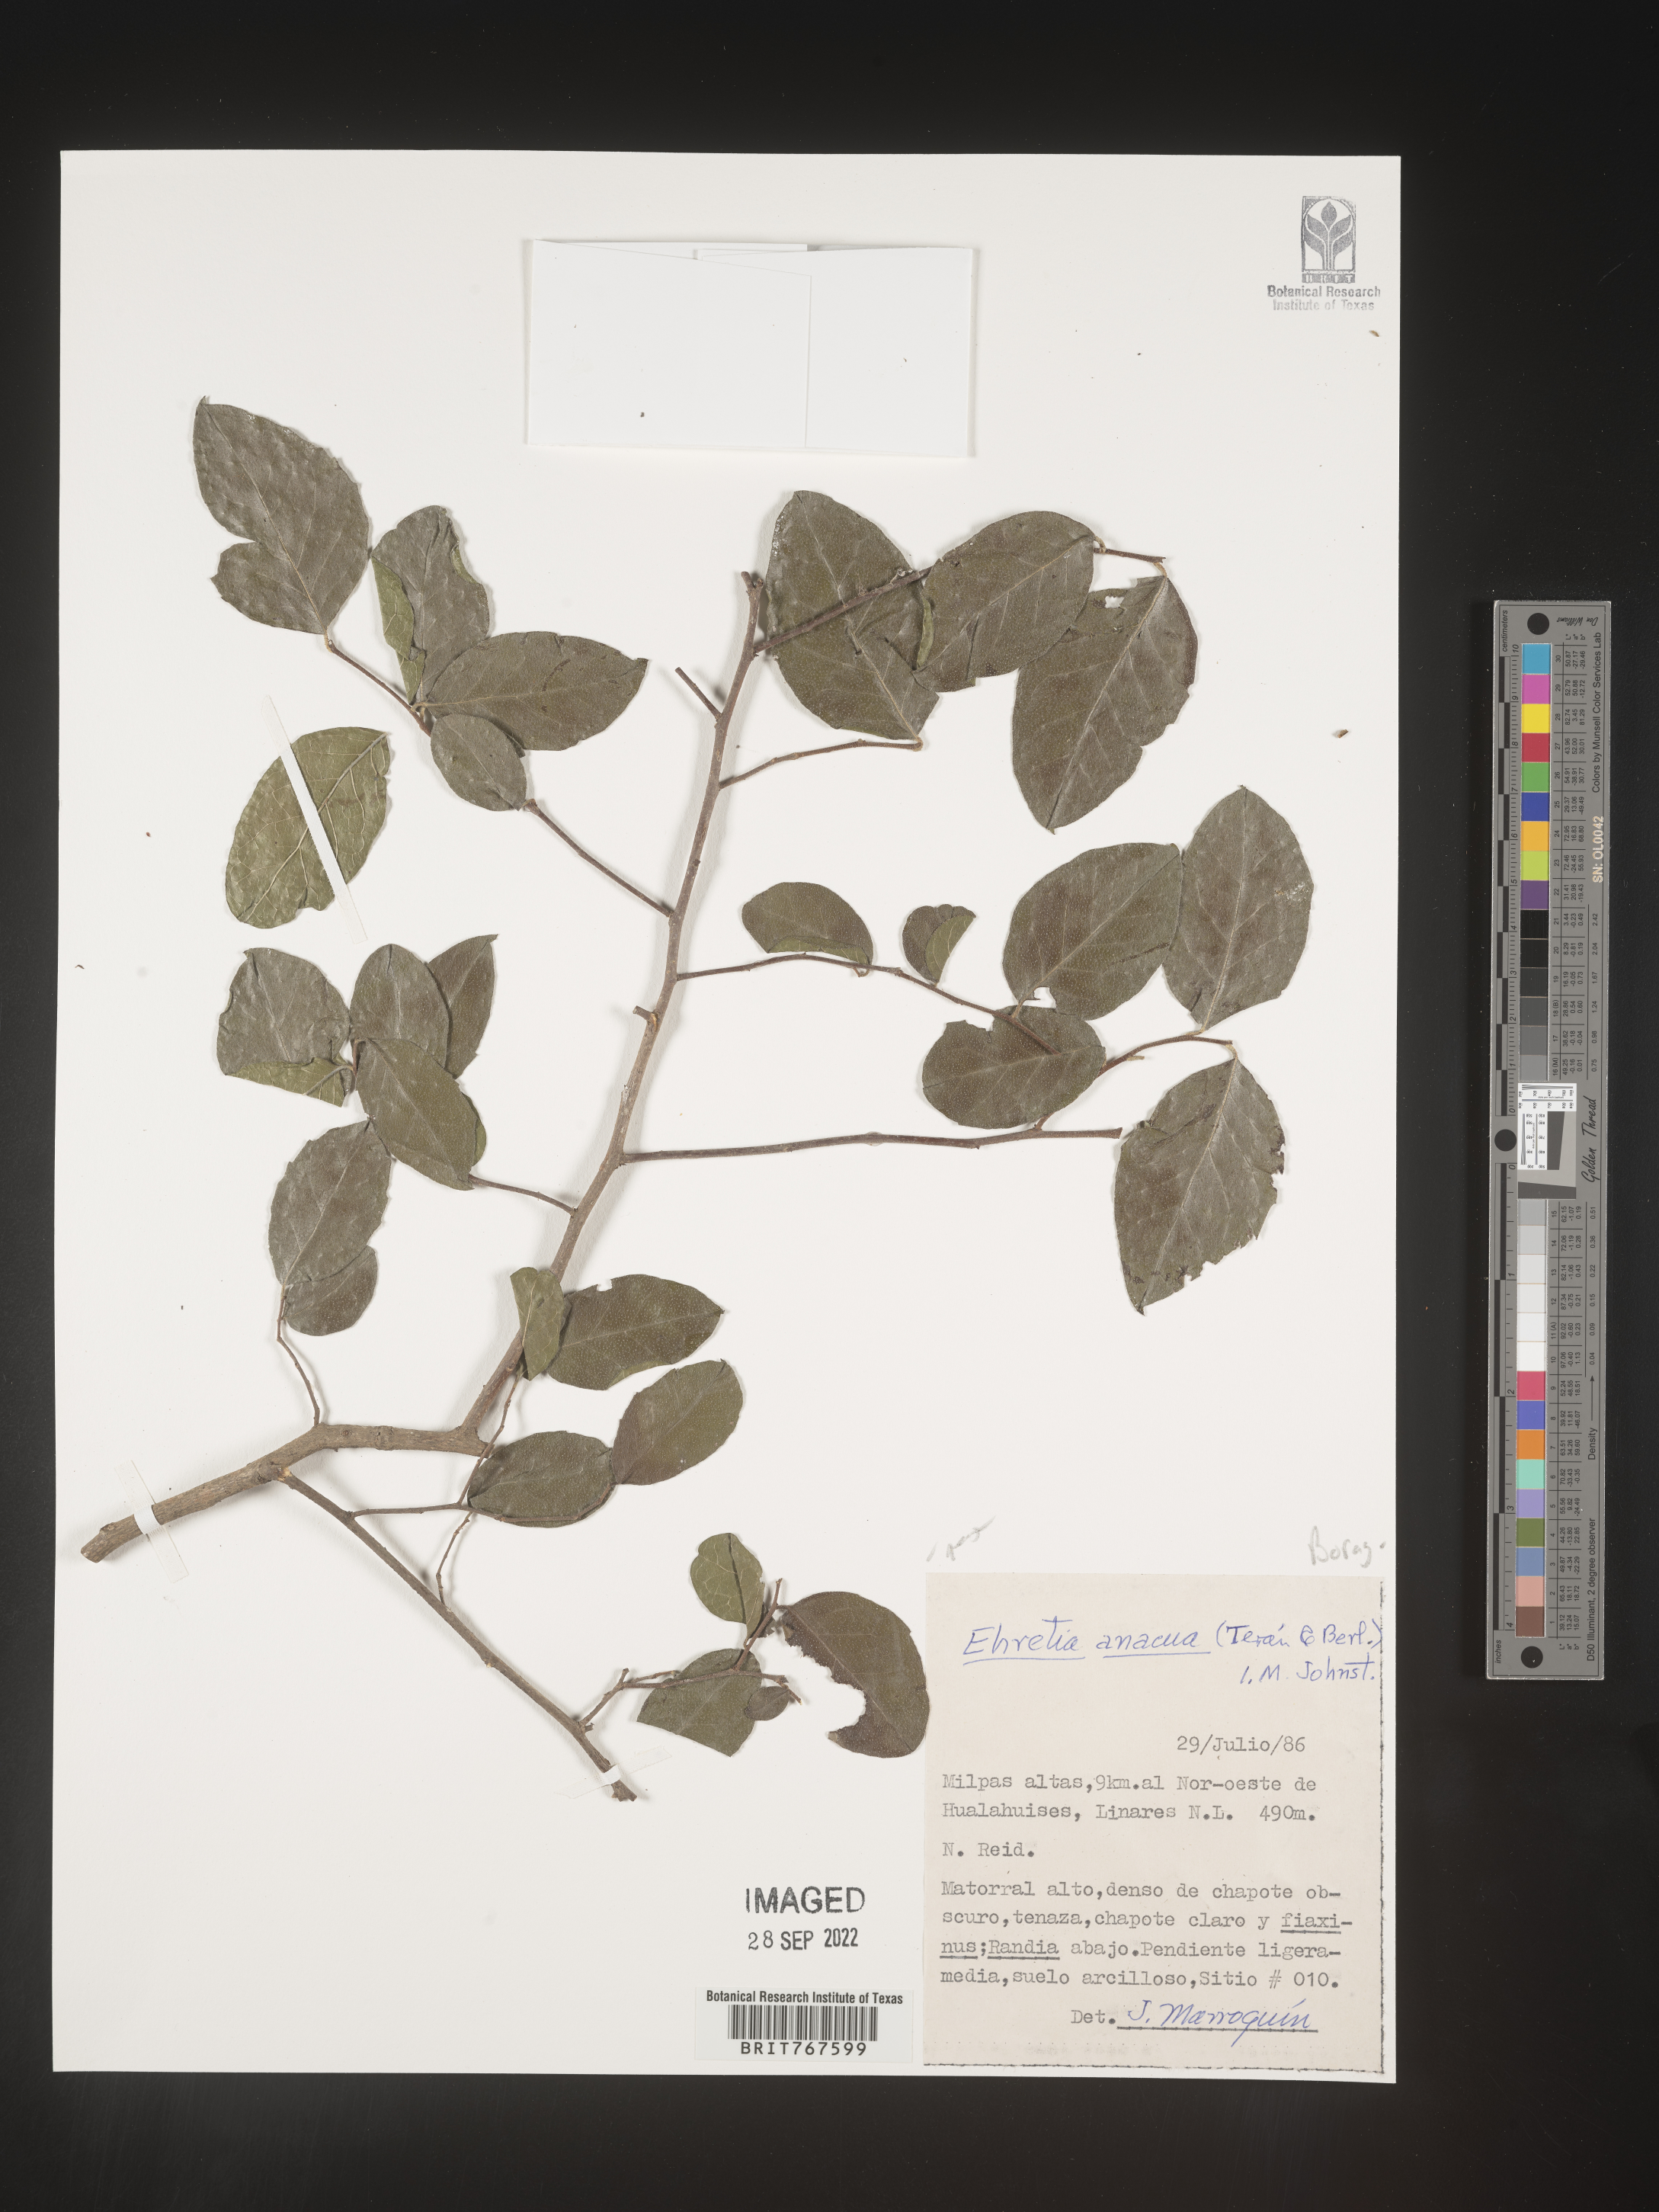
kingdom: Plantae
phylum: Tracheophyta
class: Magnoliopsida
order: Boraginales
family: Ehretiaceae
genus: Ehretia
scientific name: Ehretia
